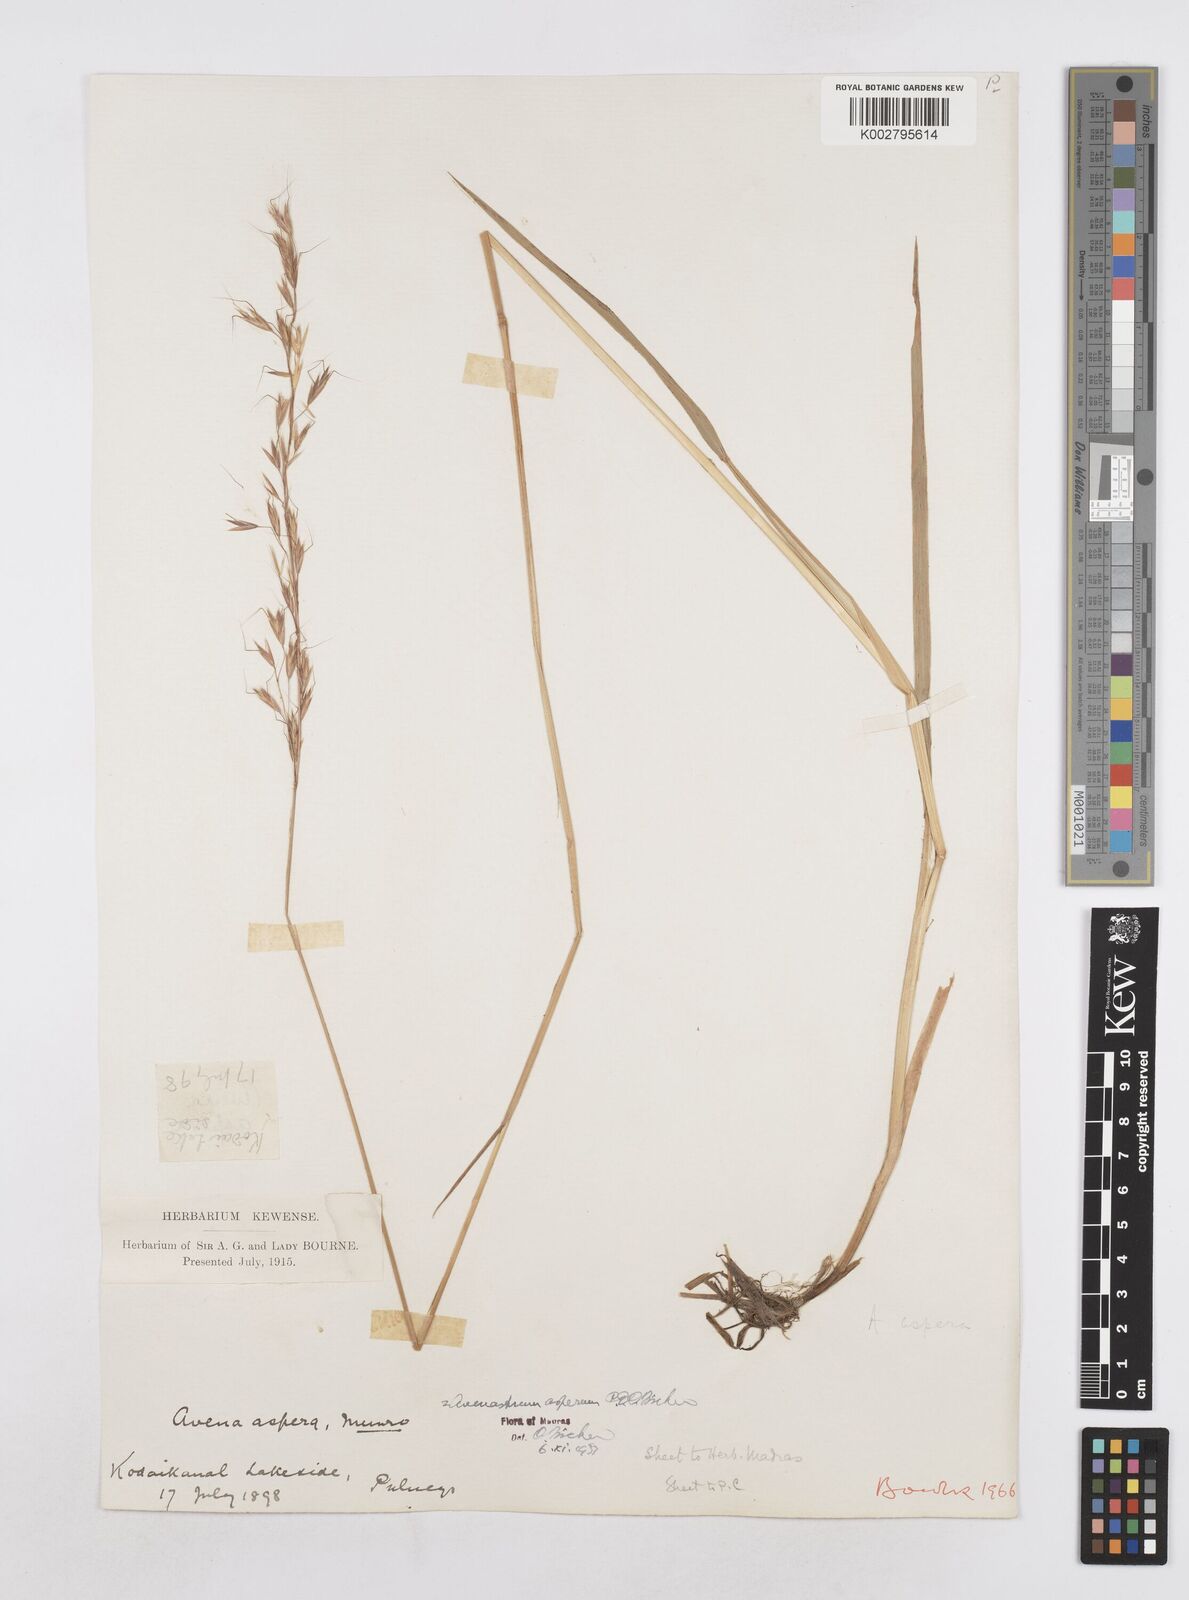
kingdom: Plantae
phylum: Tracheophyta
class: Liliopsida
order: Poales
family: Poaceae
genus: Helictotrichon
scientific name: Helictotrichon
